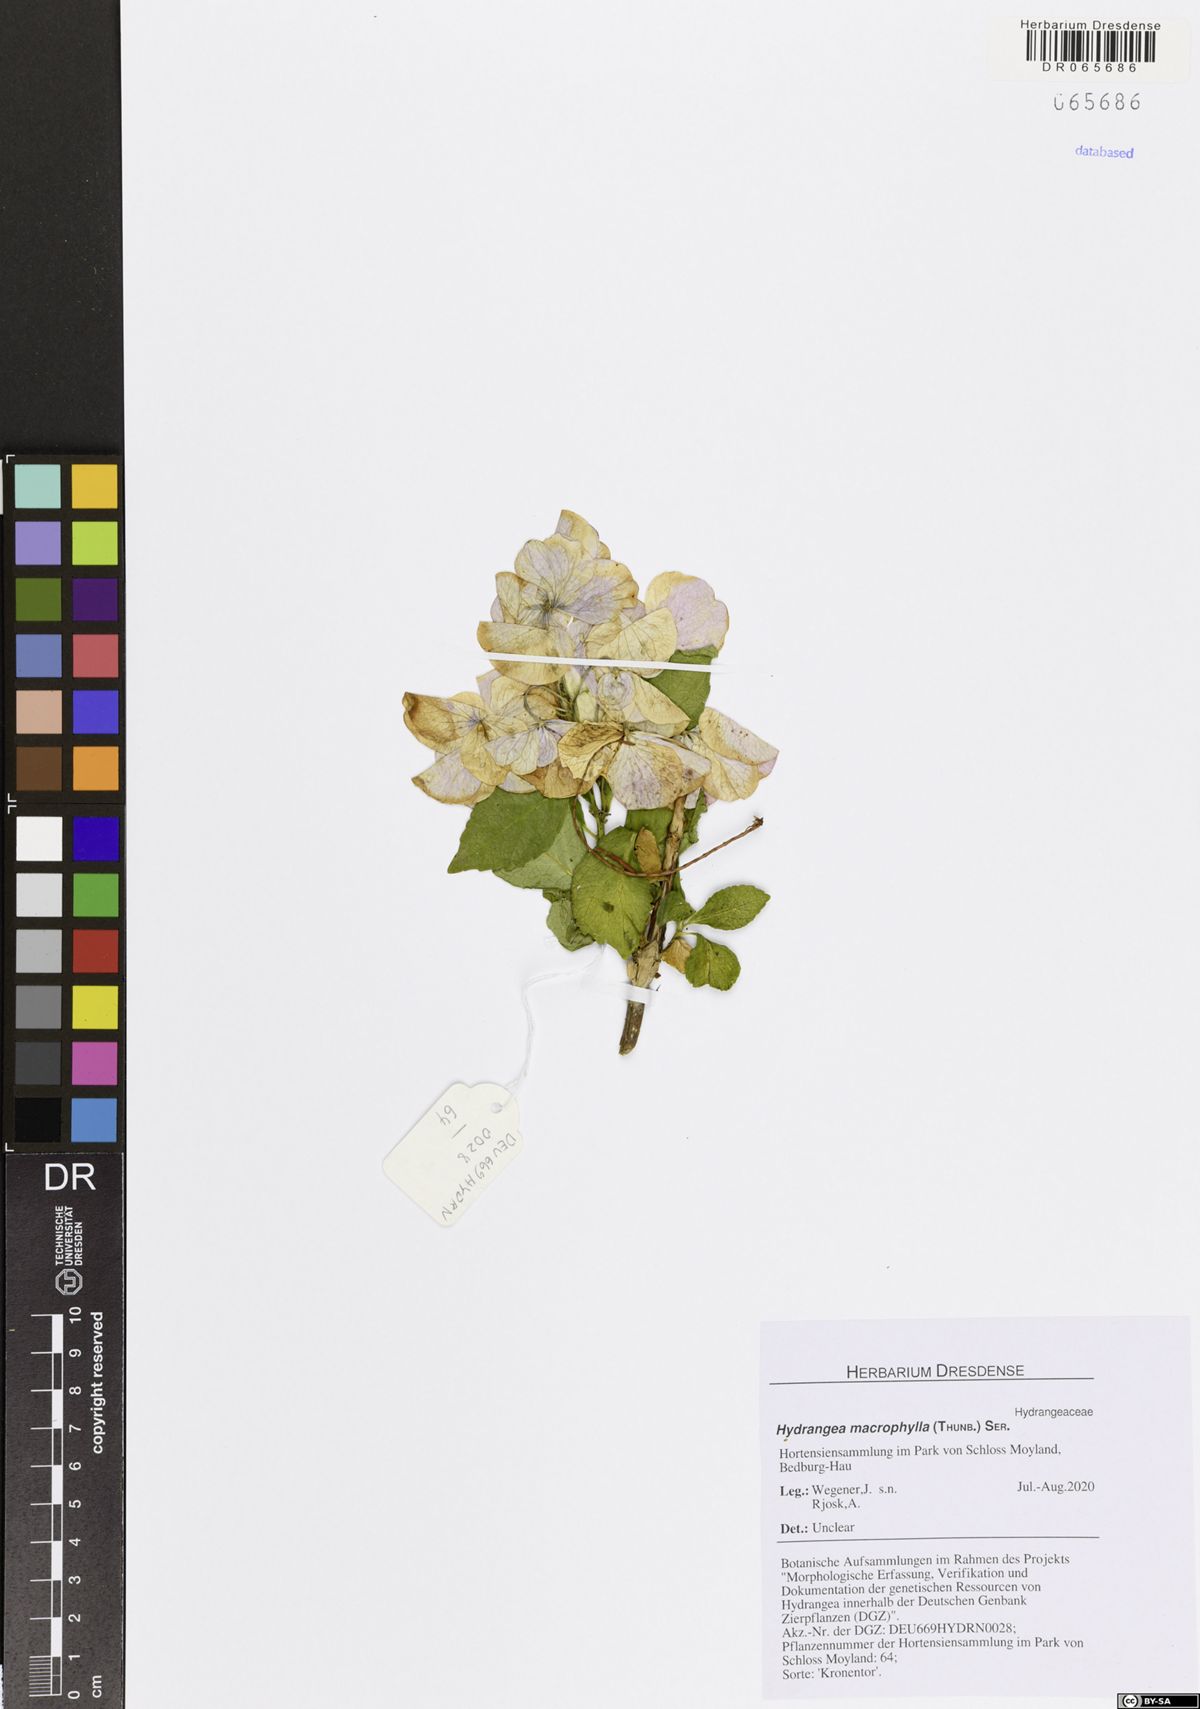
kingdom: Plantae
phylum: Tracheophyta
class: Magnoliopsida
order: Cornales
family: Hydrangeaceae
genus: Hydrangea
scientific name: Hydrangea macrophylla
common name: Hydrangea
